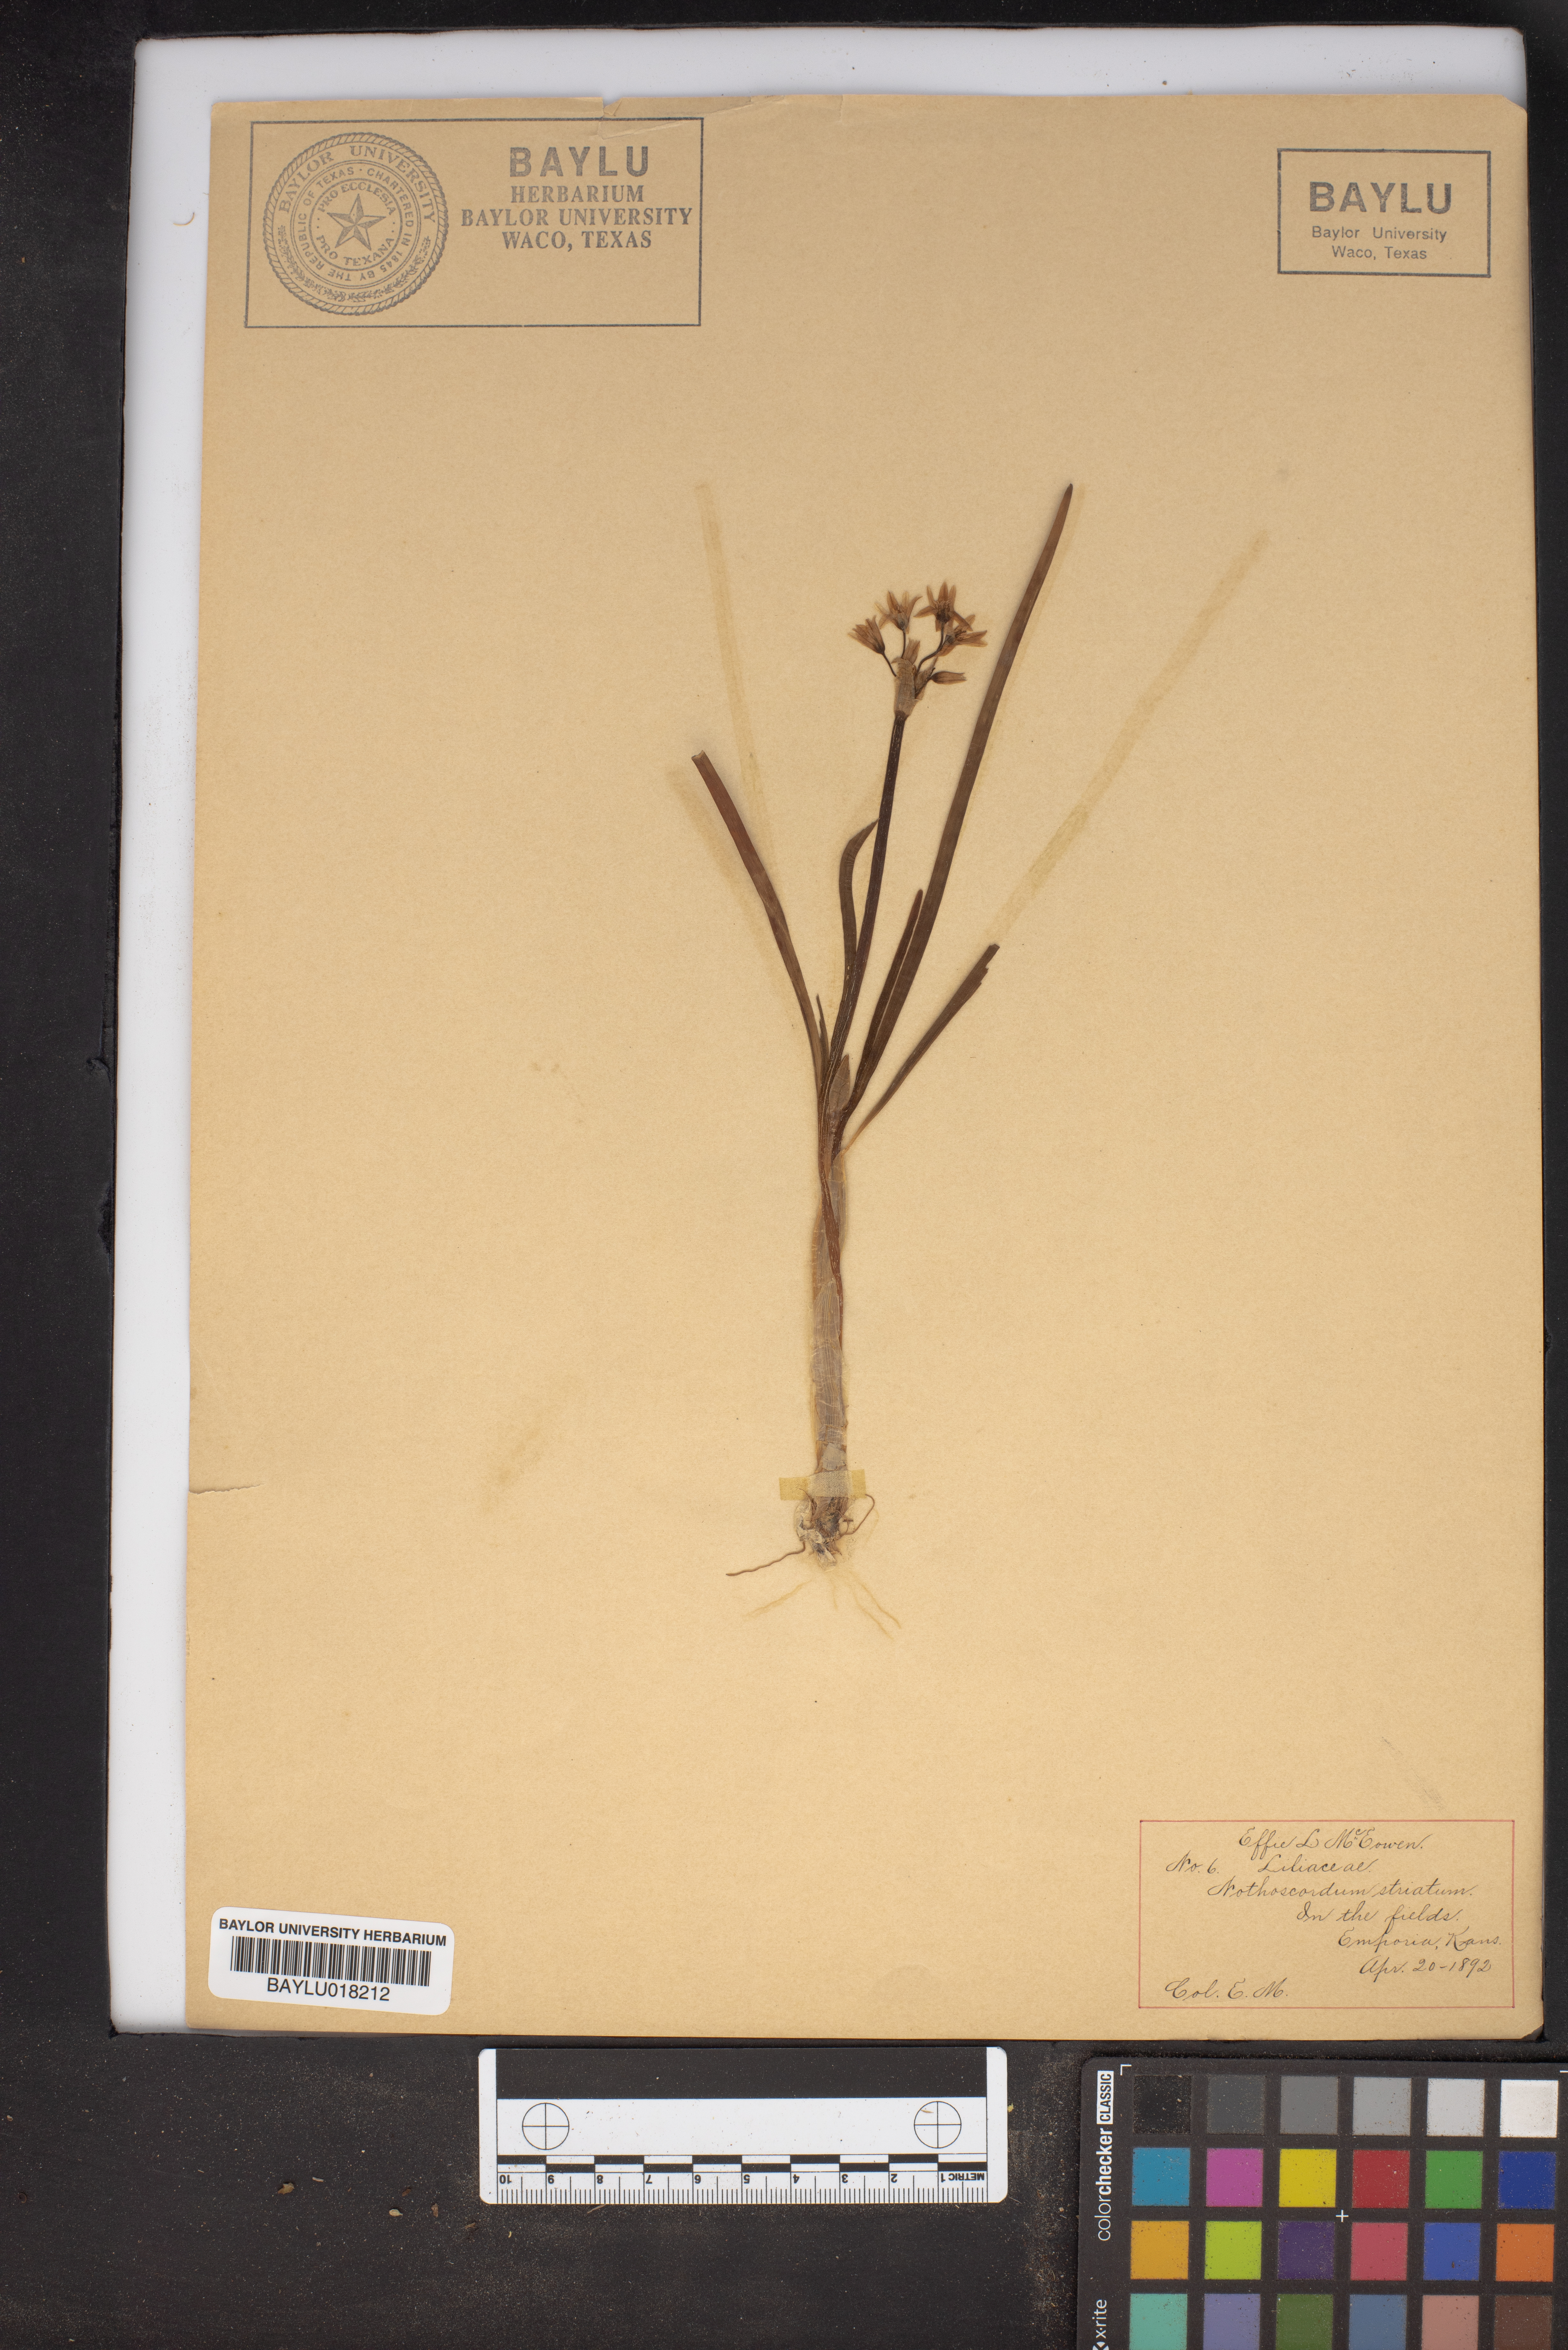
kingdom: Plantae
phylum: Tracheophyta
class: Liliopsida
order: Asparagales
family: Amaryllidaceae
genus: Nothoscordum
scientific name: Nothoscordum bivalve
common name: Crow-poison
